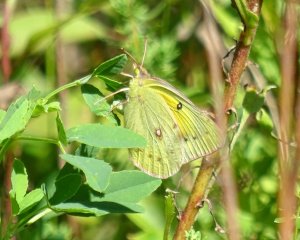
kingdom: Animalia
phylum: Arthropoda
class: Insecta
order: Lepidoptera
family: Pieridae
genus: Colias
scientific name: Colias eurytheme
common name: Orange Sulphur
